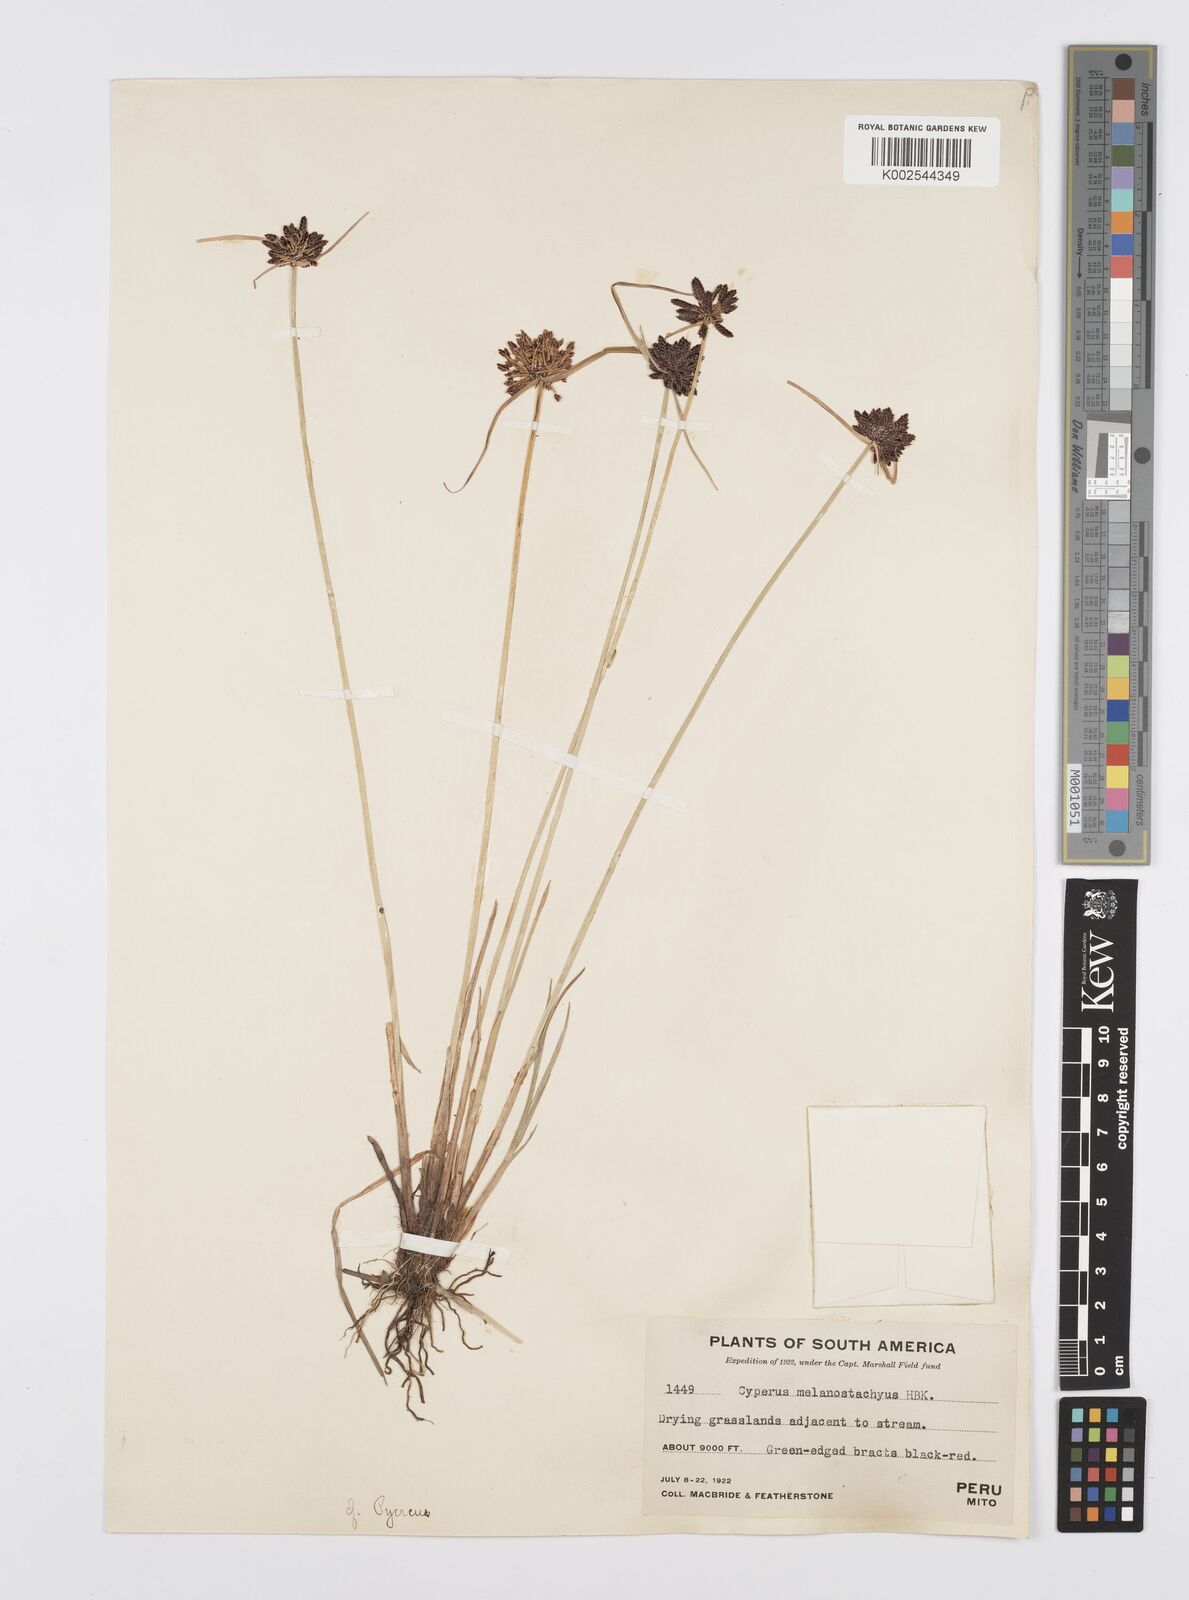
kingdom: Plantae
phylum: Tracheophyta
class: Liliopsida
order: Poales
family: Cyperaceae
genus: Cyperus
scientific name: Cyperus melanostachyus
